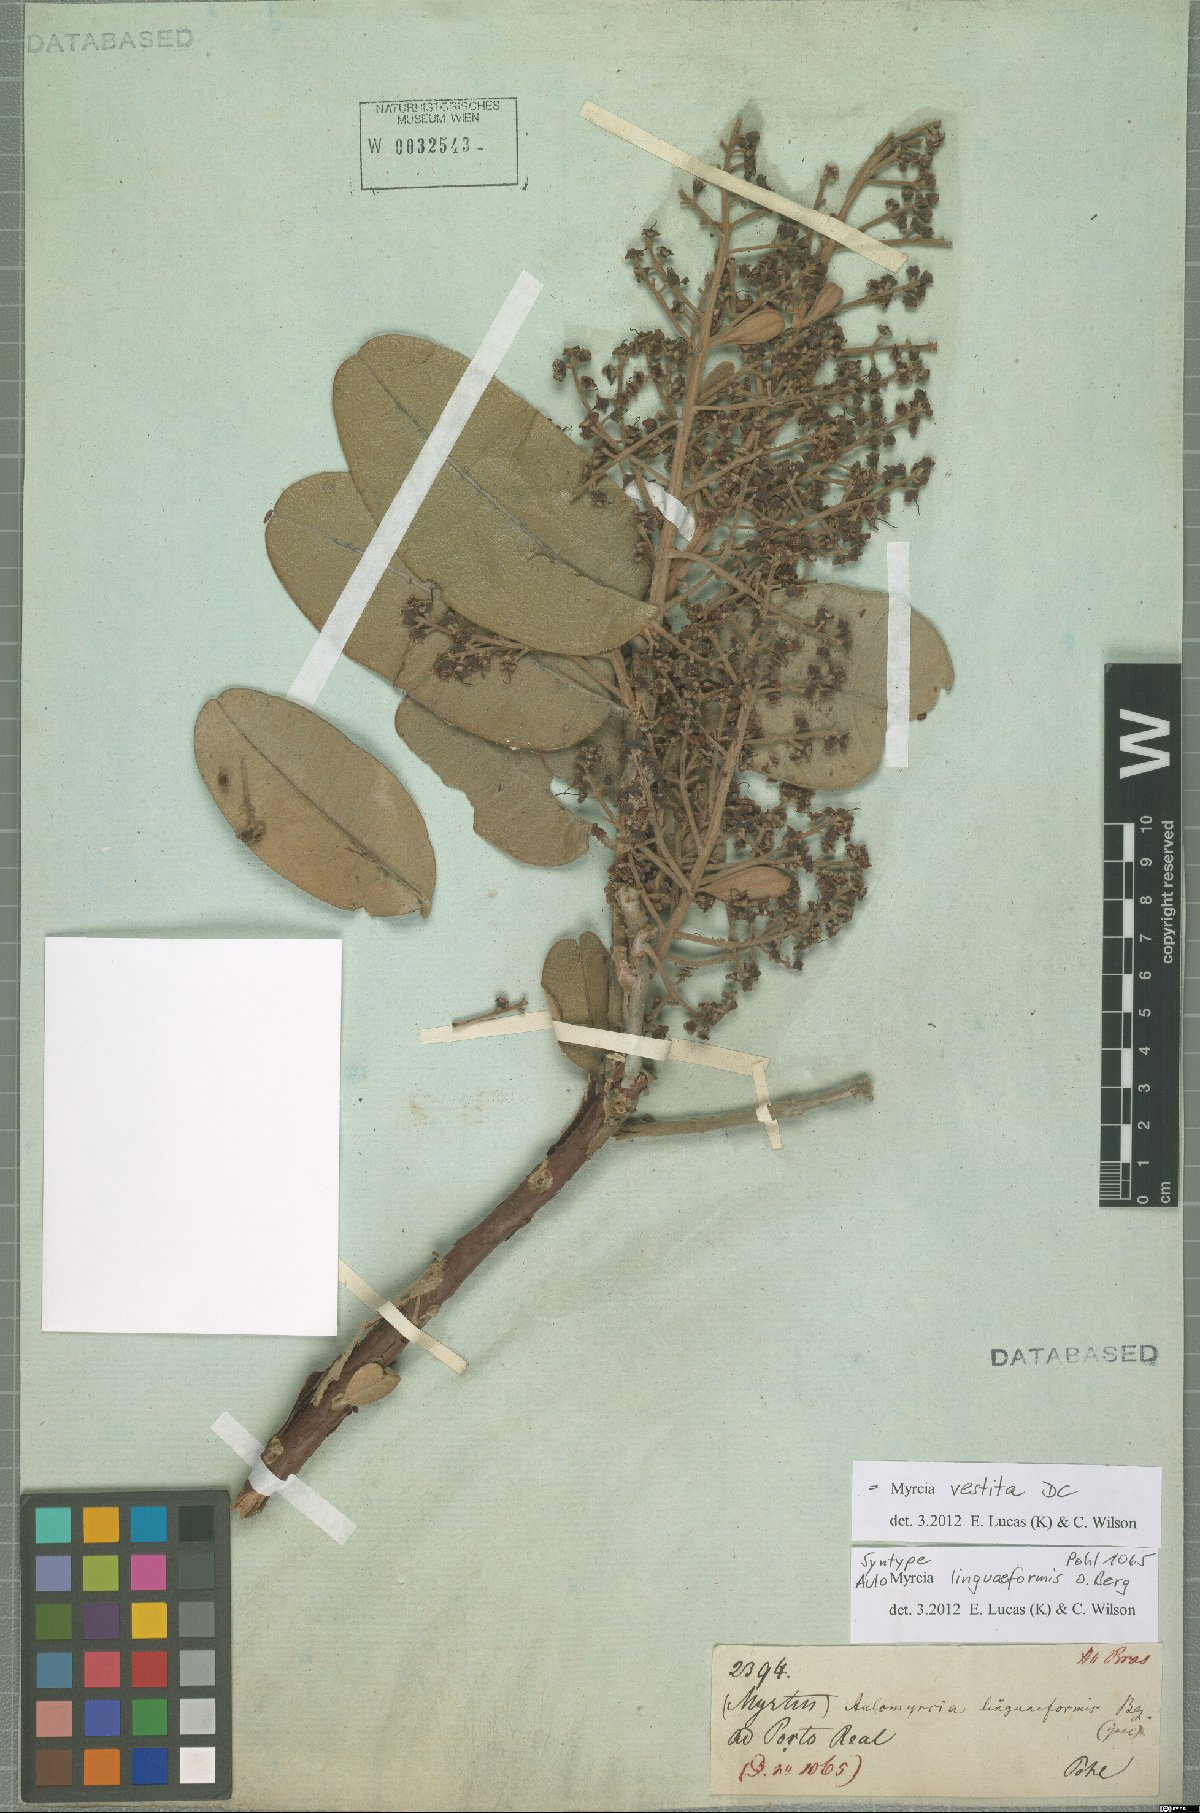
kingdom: Plantae
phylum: Tracheophyta
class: Magnoliopsida
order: Myrtales
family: Myrtaceae
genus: Myrcia
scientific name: Myrcia vestita
